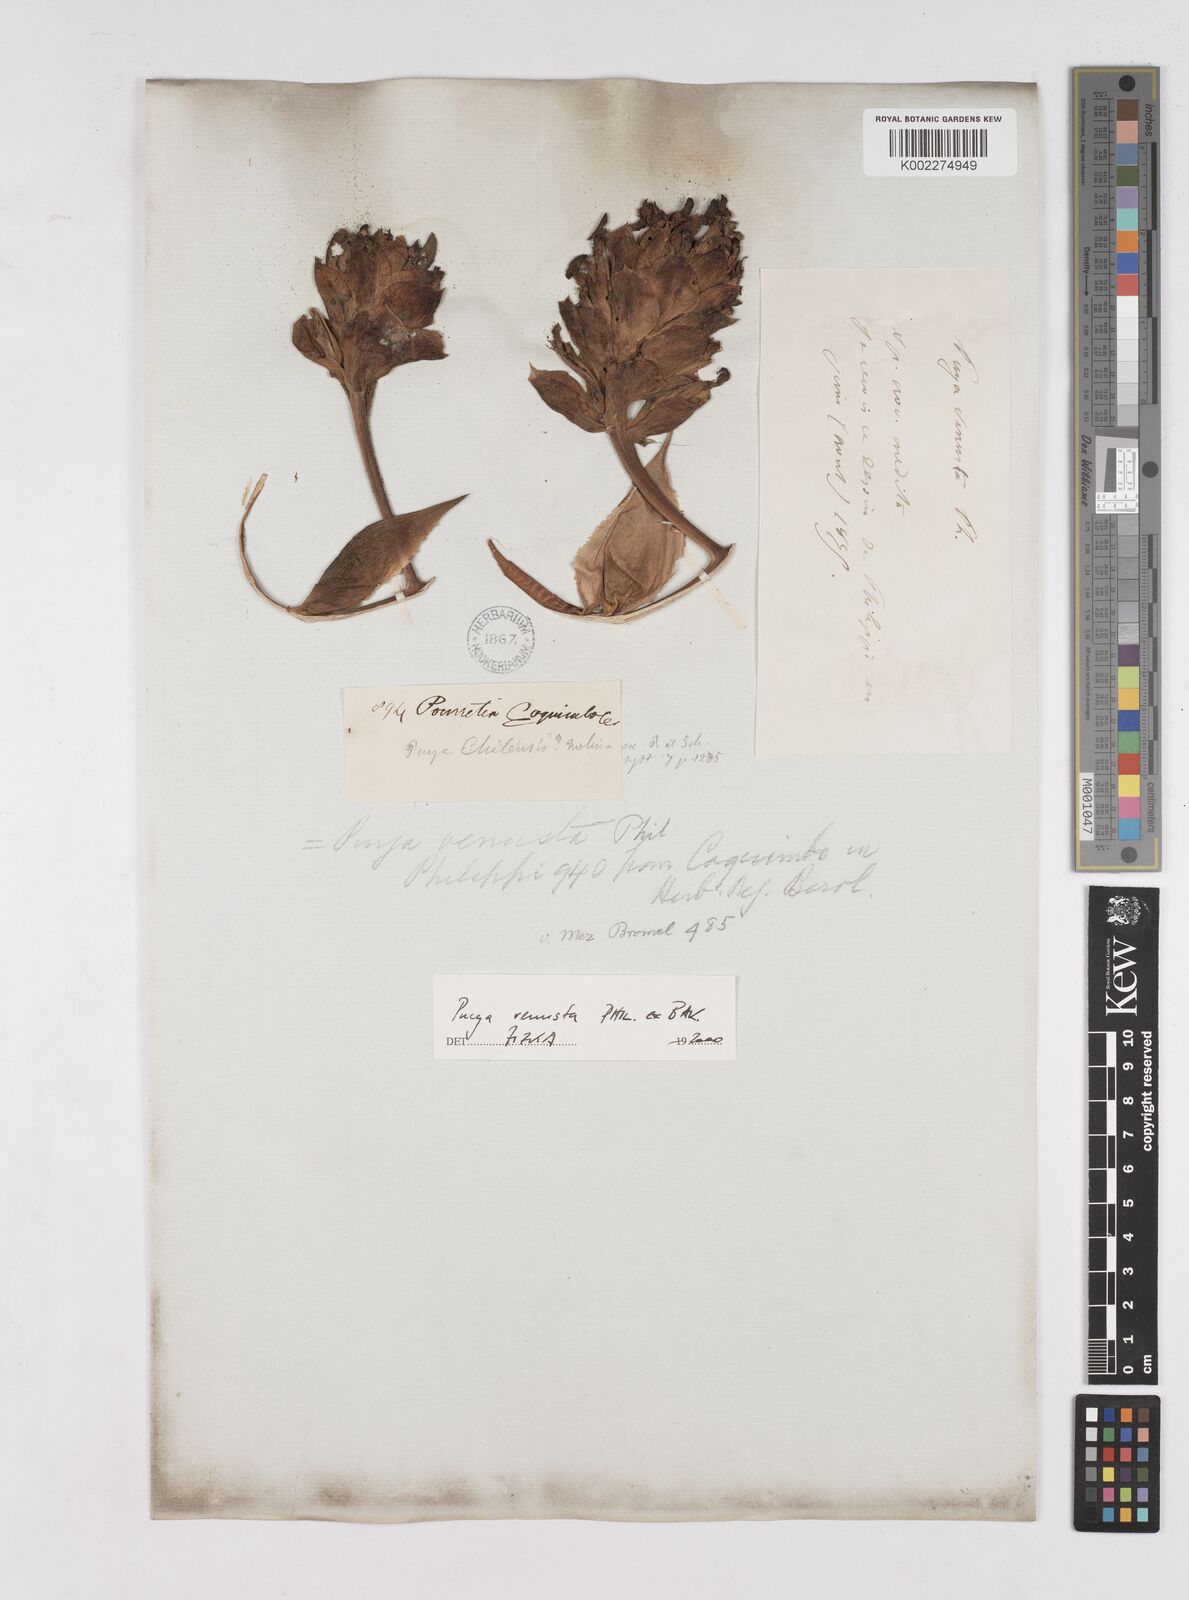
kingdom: Plantae
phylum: Tracheophyta
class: Liliopsida
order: Poales
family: Bromeliaceae
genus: Puya
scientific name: Puya venusta
